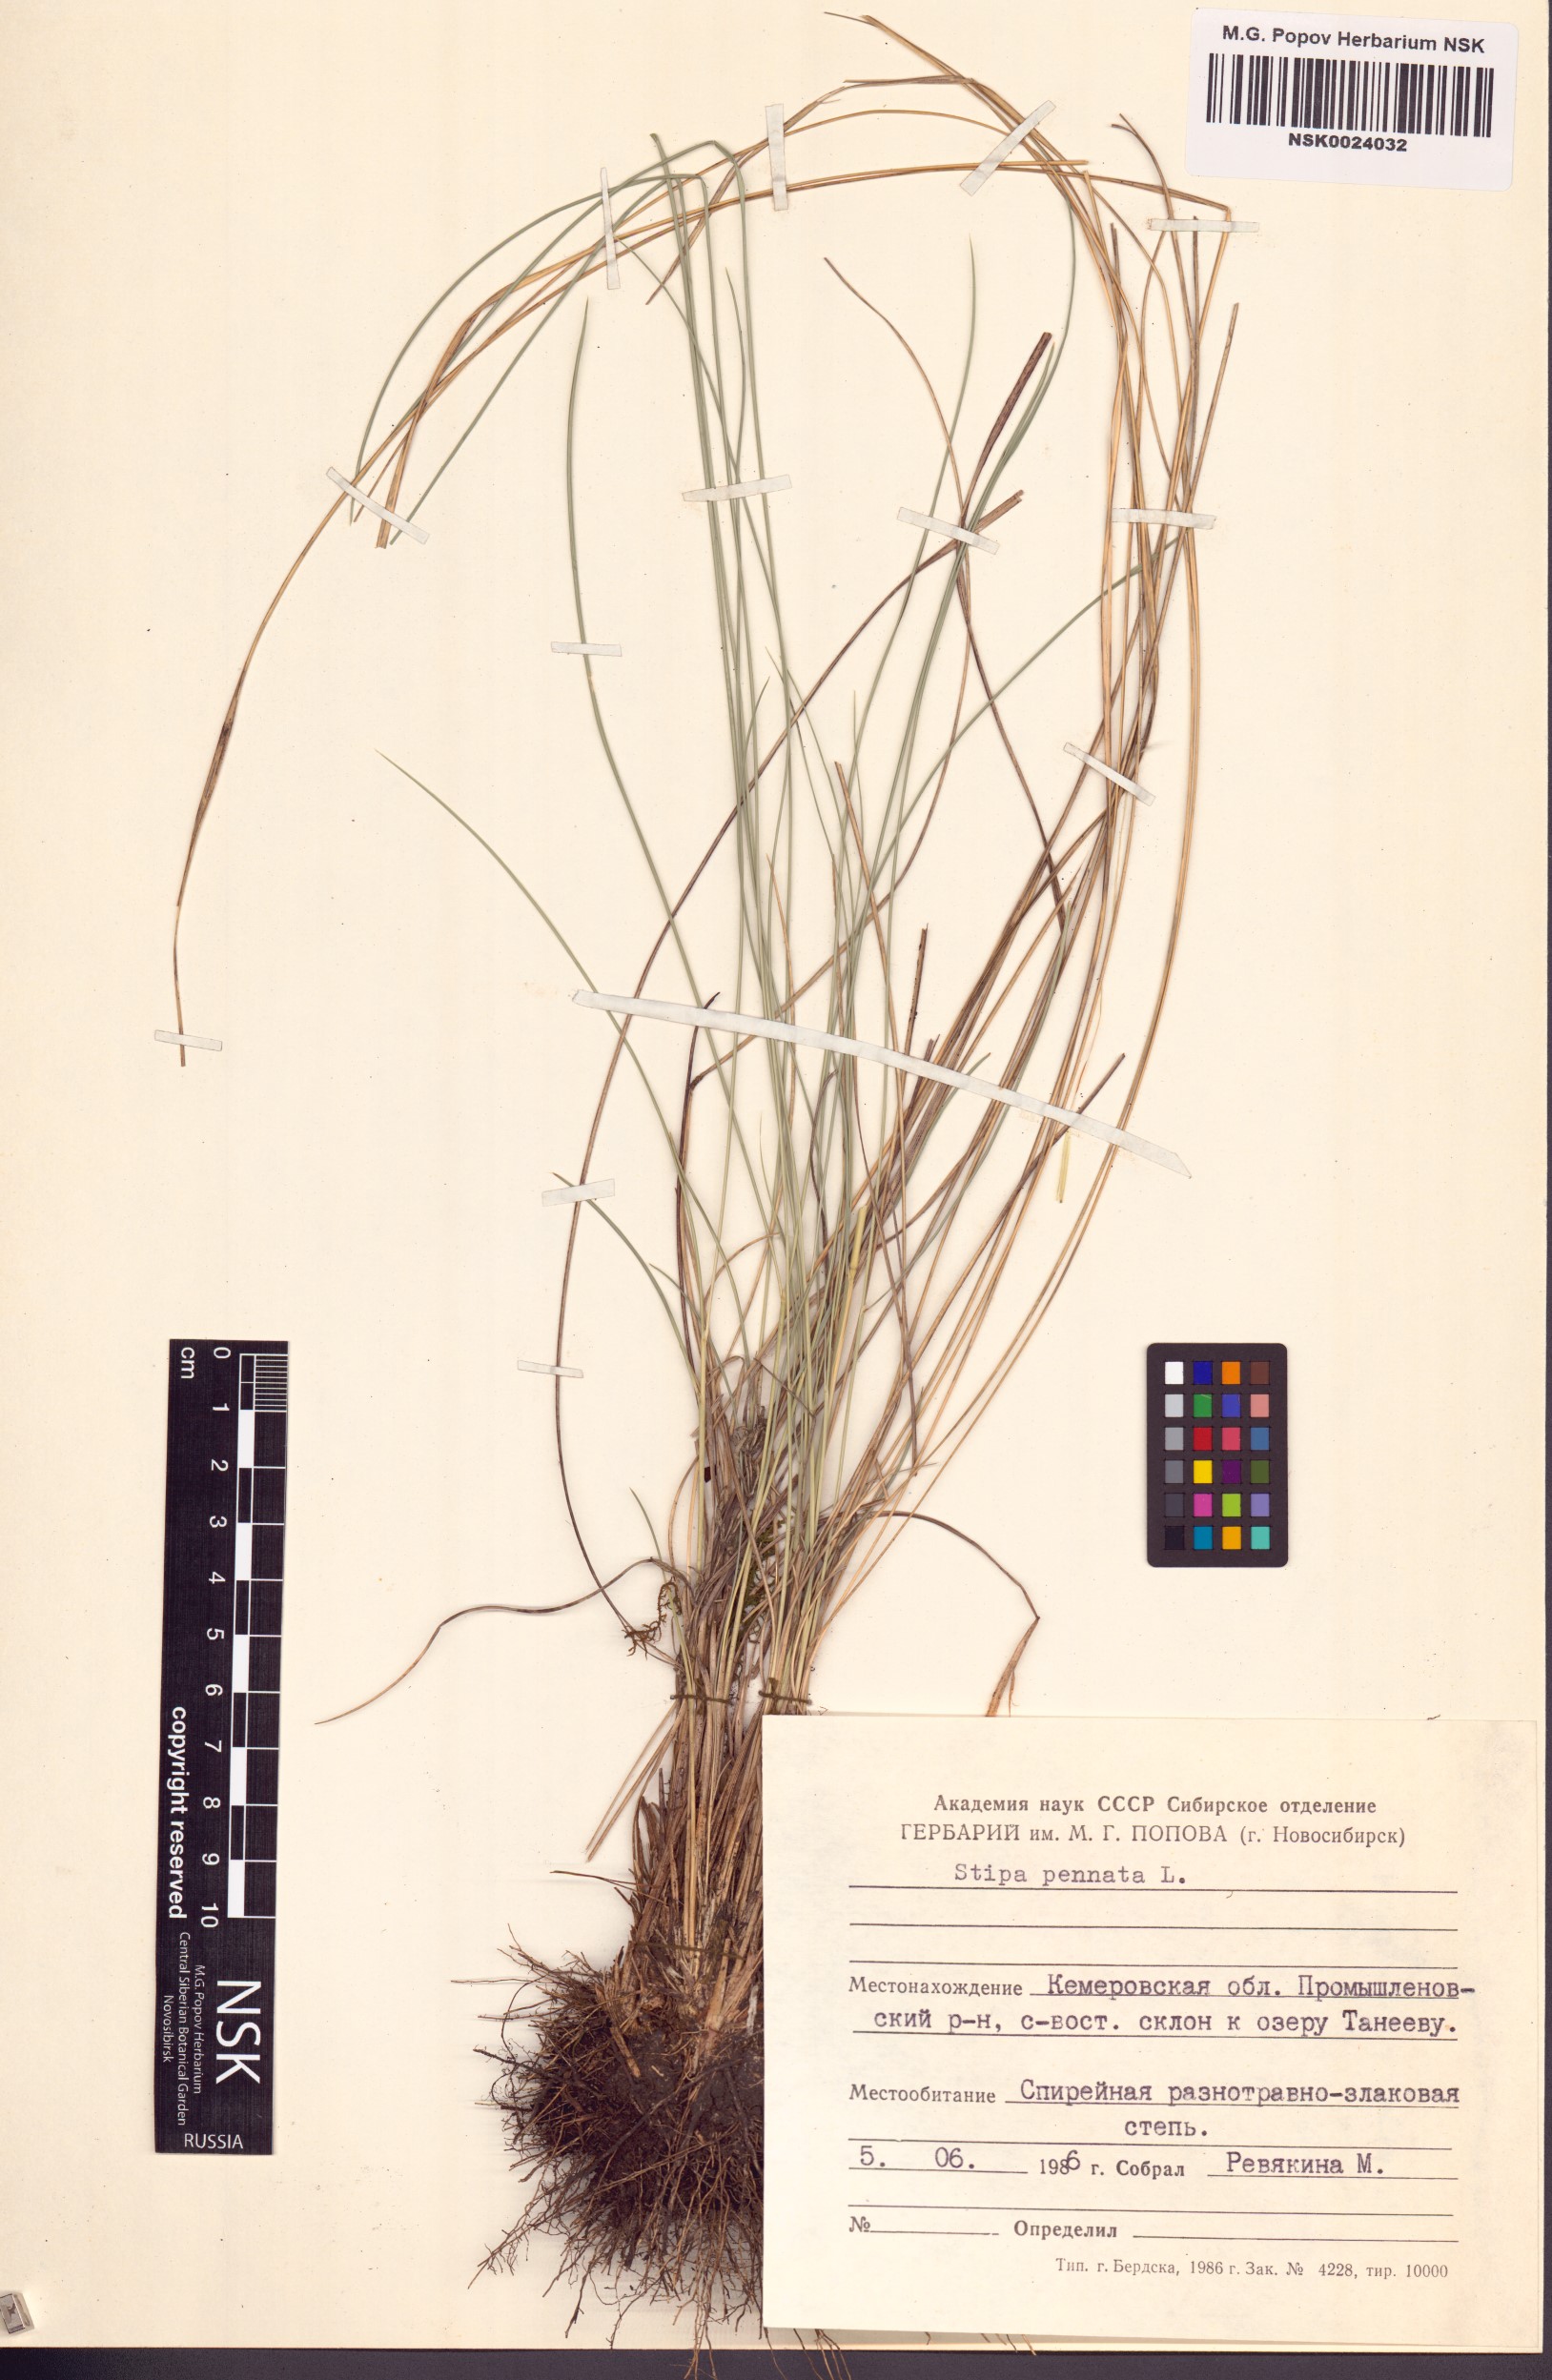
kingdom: Plantae
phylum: Tracheophyta
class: Liliopsida
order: Poales
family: Poaceae
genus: Stipa
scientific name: Stipa pennata
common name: European feather grass
